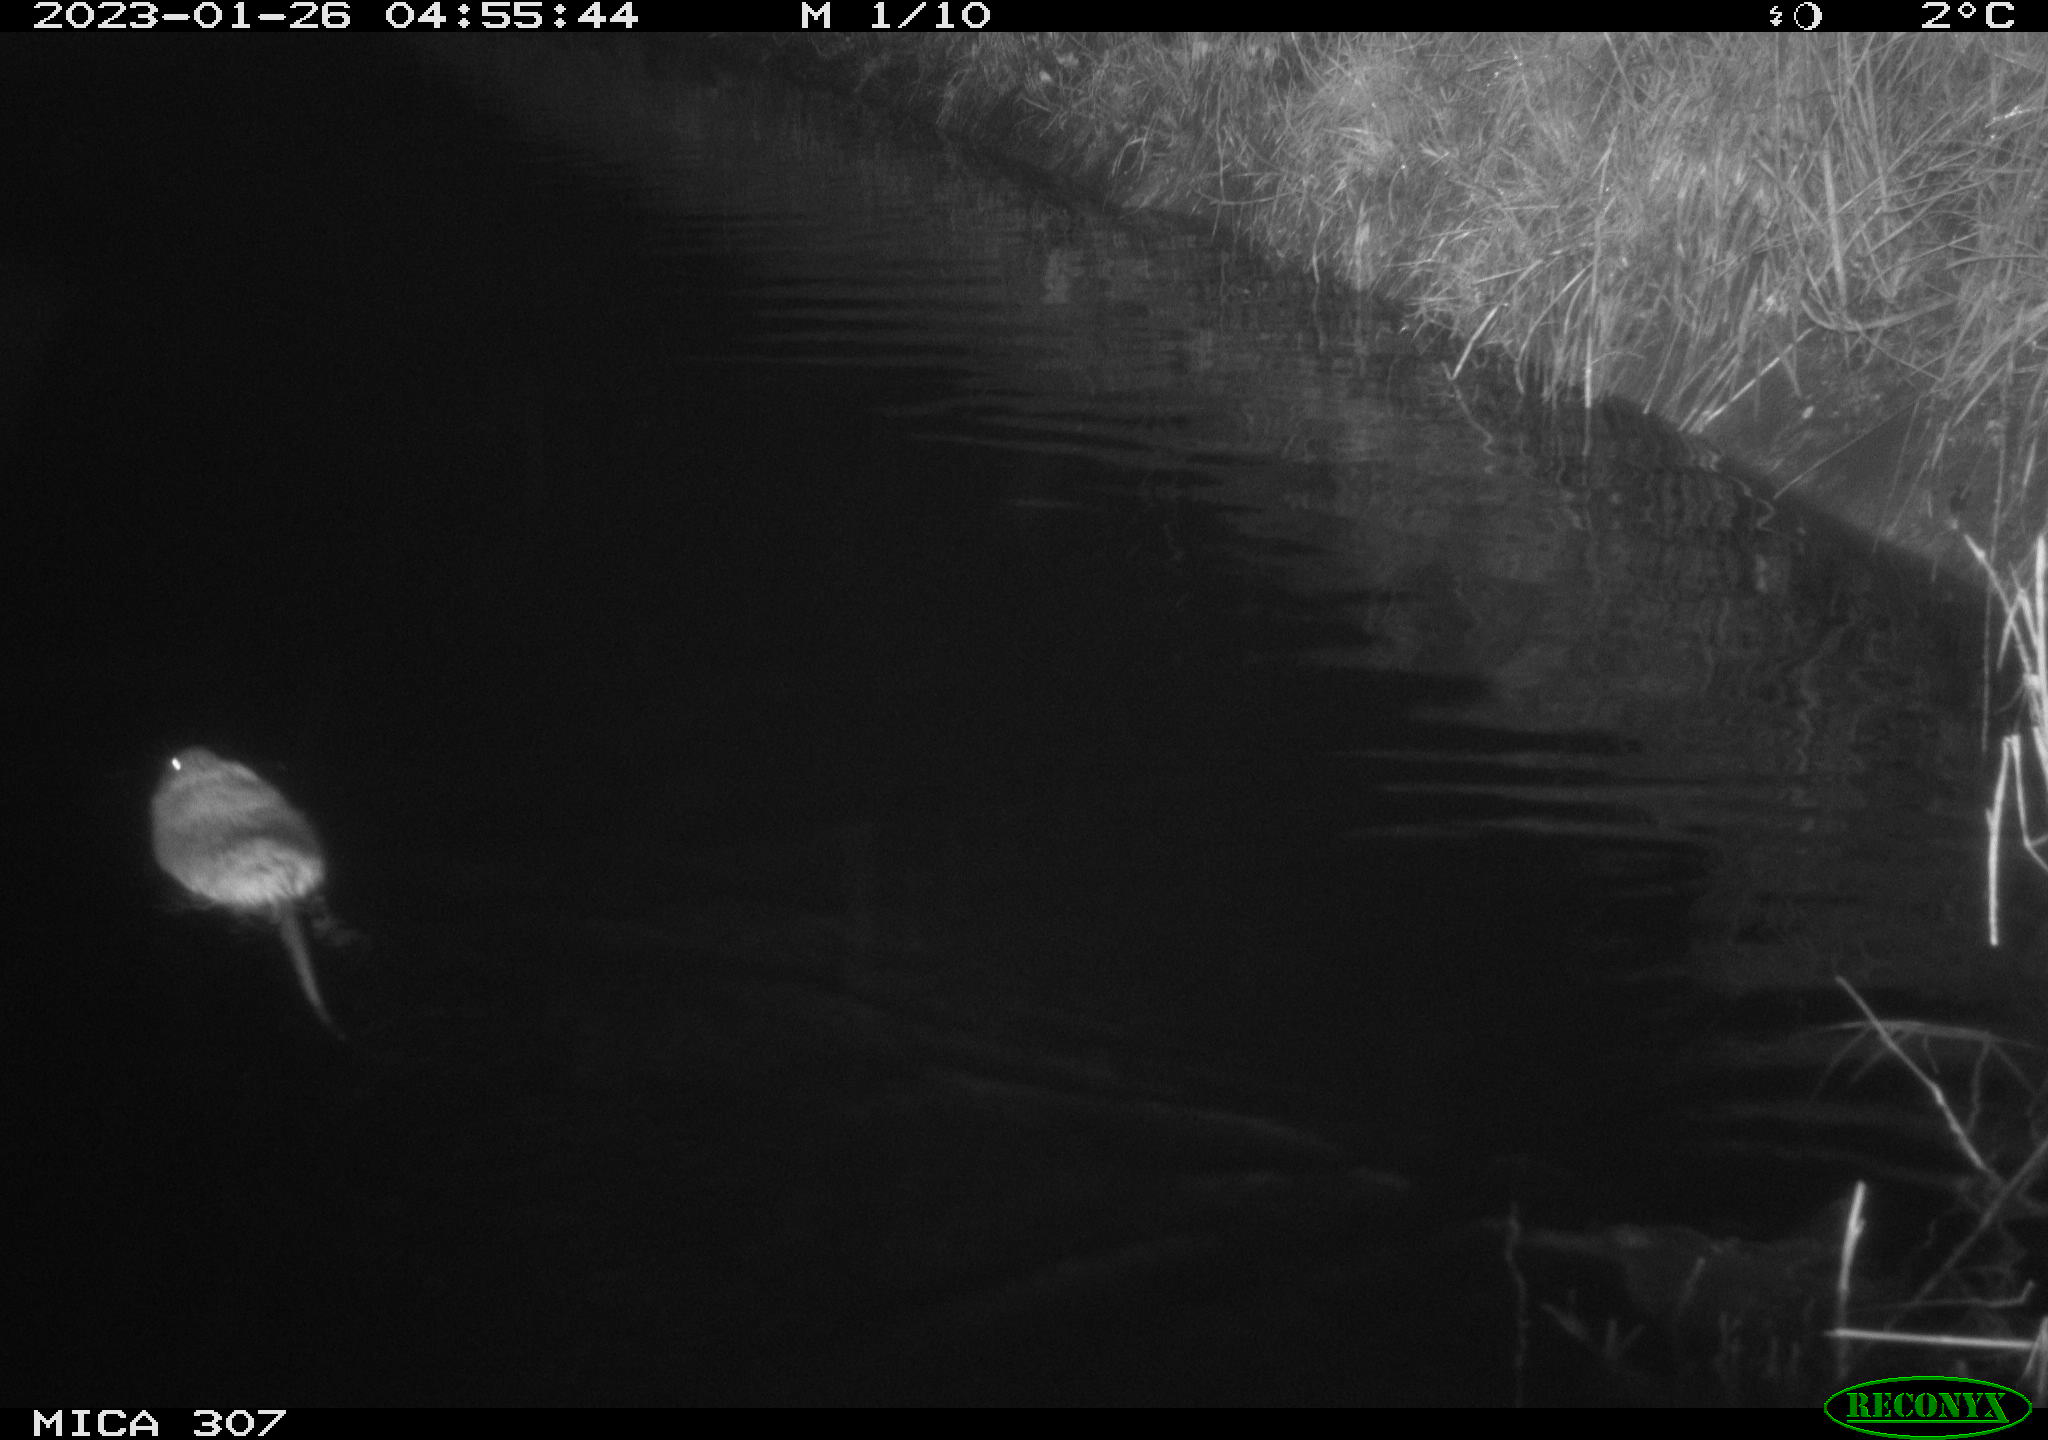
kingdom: Animalia
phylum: Chordata
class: Mammalia
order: Rodentia
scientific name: Rodentia
